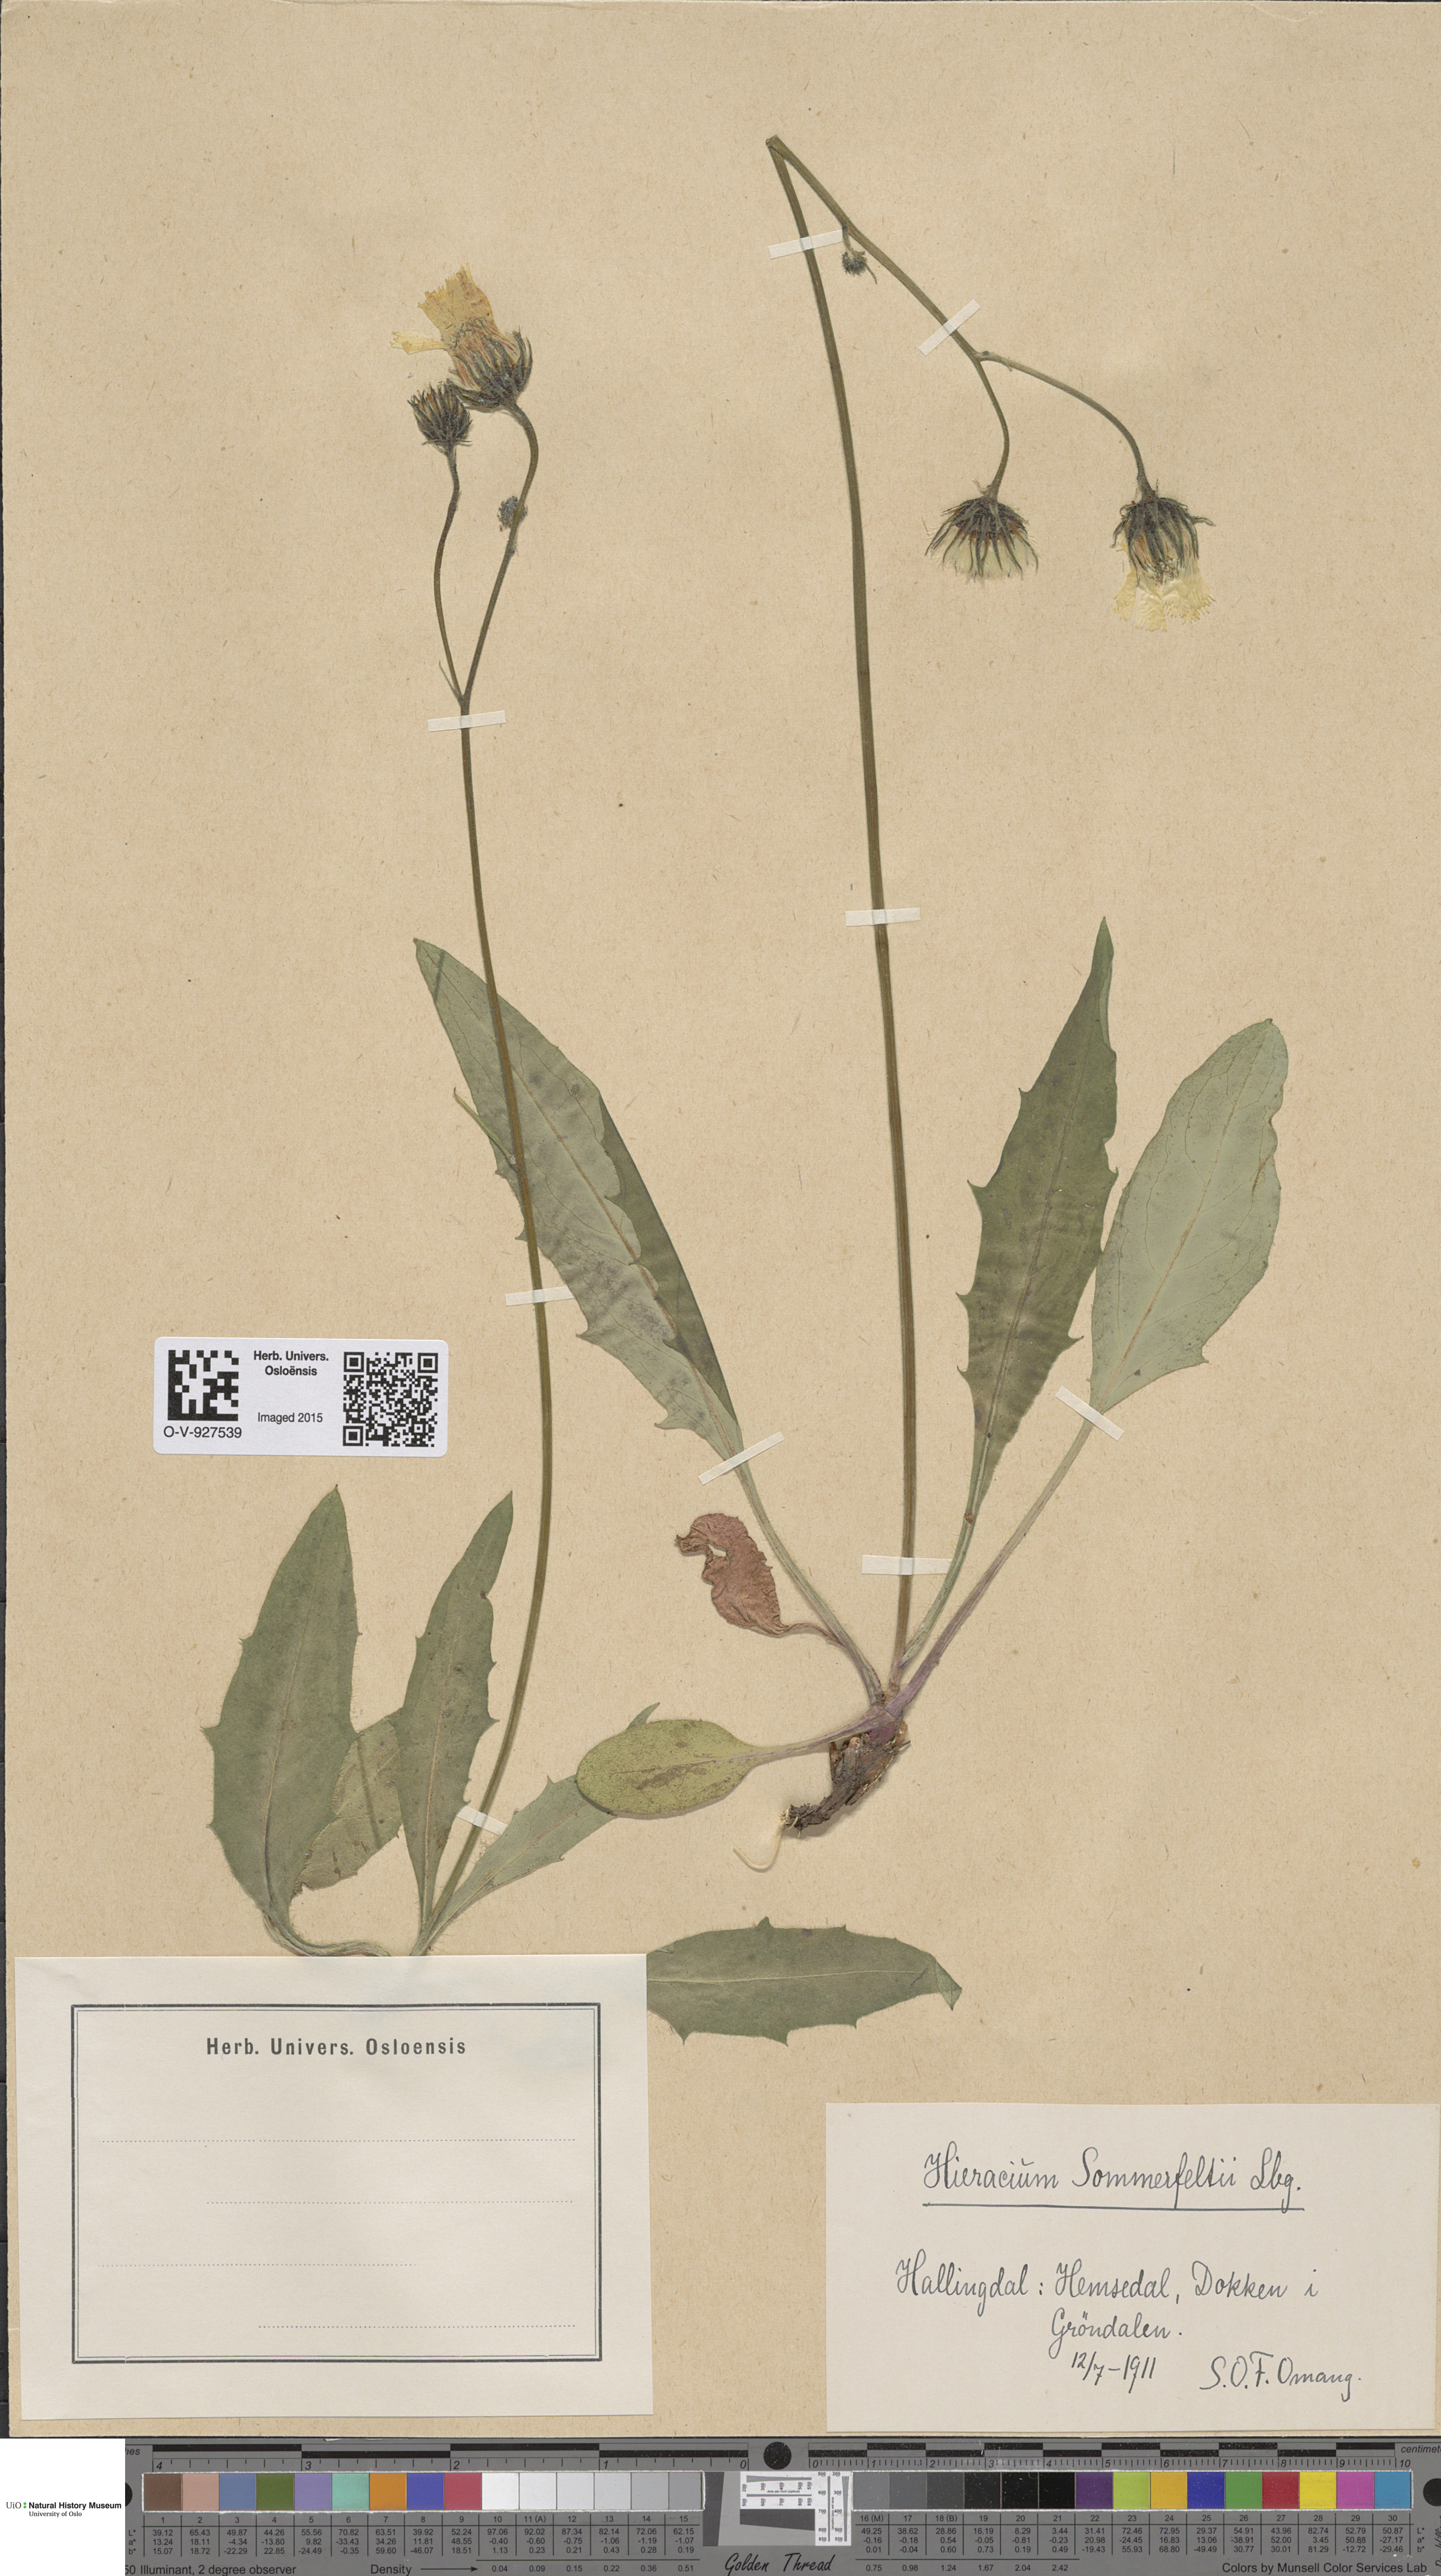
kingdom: Plantae
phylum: Tracheophyta
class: Magnoliopsida
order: Asterales
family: Asteraceae
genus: Hieracium
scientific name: Hieracium sommerfeltii
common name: Sommerfelt's hawkweed
